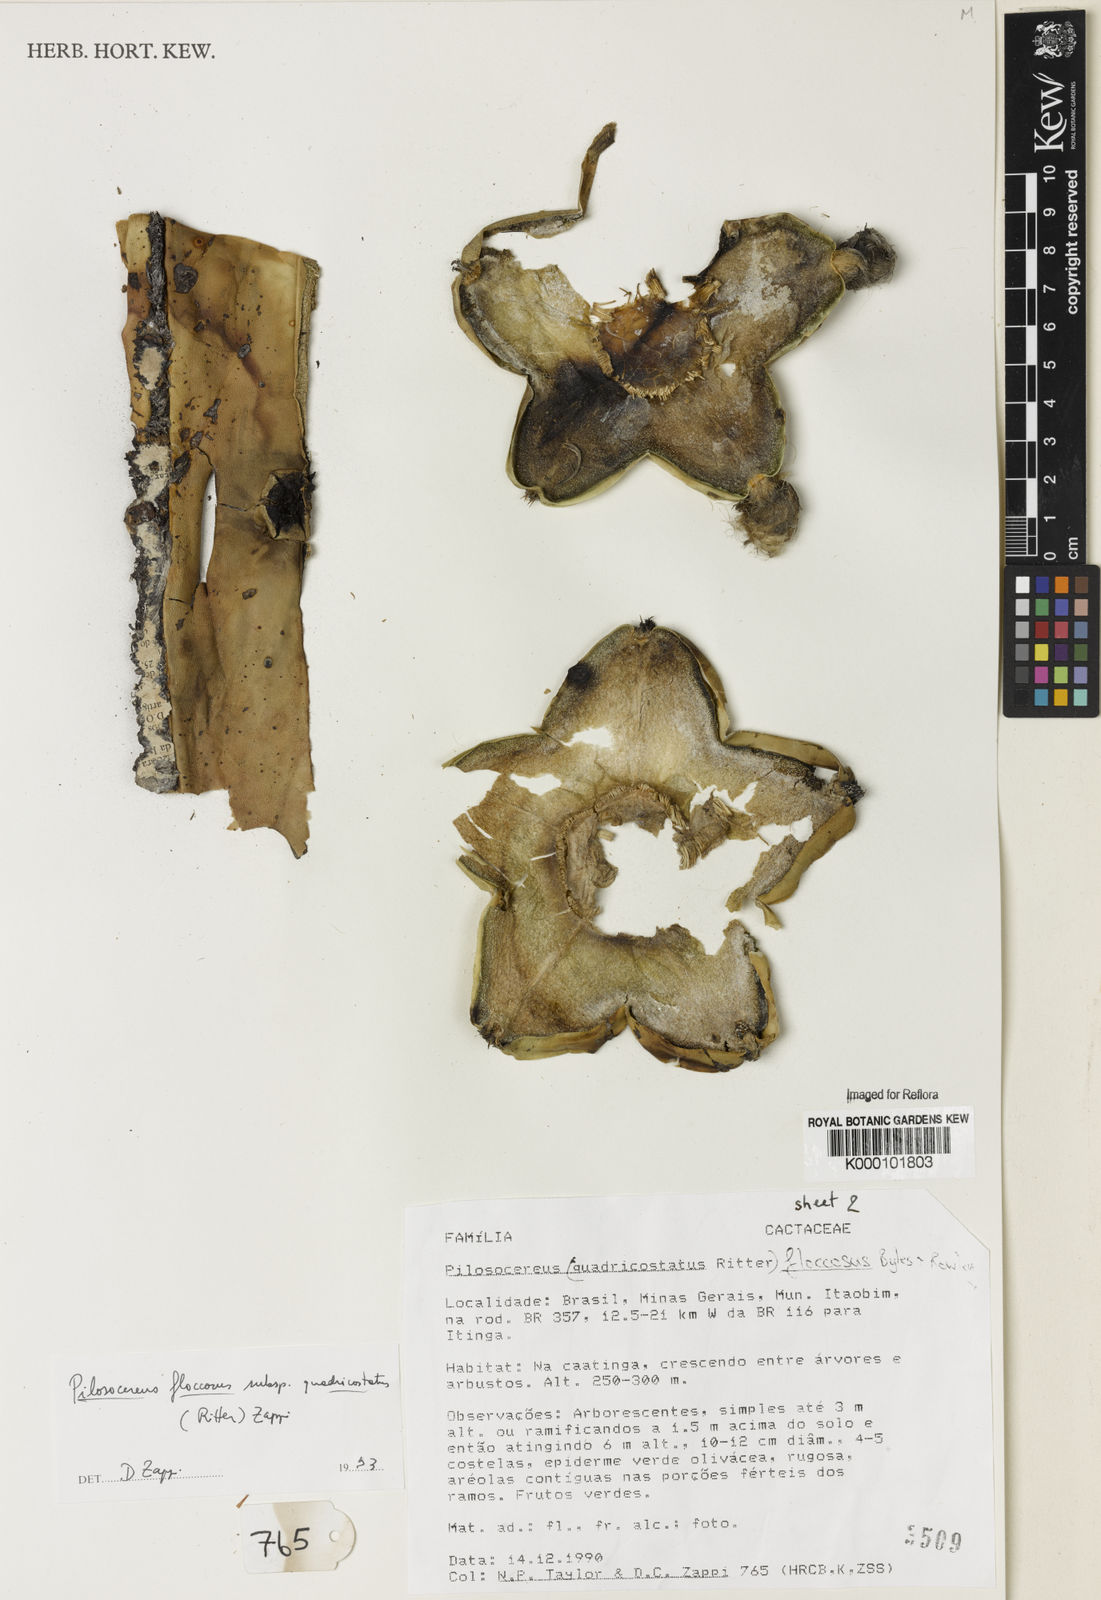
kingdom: Plantae
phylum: Tracheophyta
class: Magnoliopsida
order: Caryophyllales
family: Cactaceae
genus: Pilosocereus
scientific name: Pilosocereus floccosus
